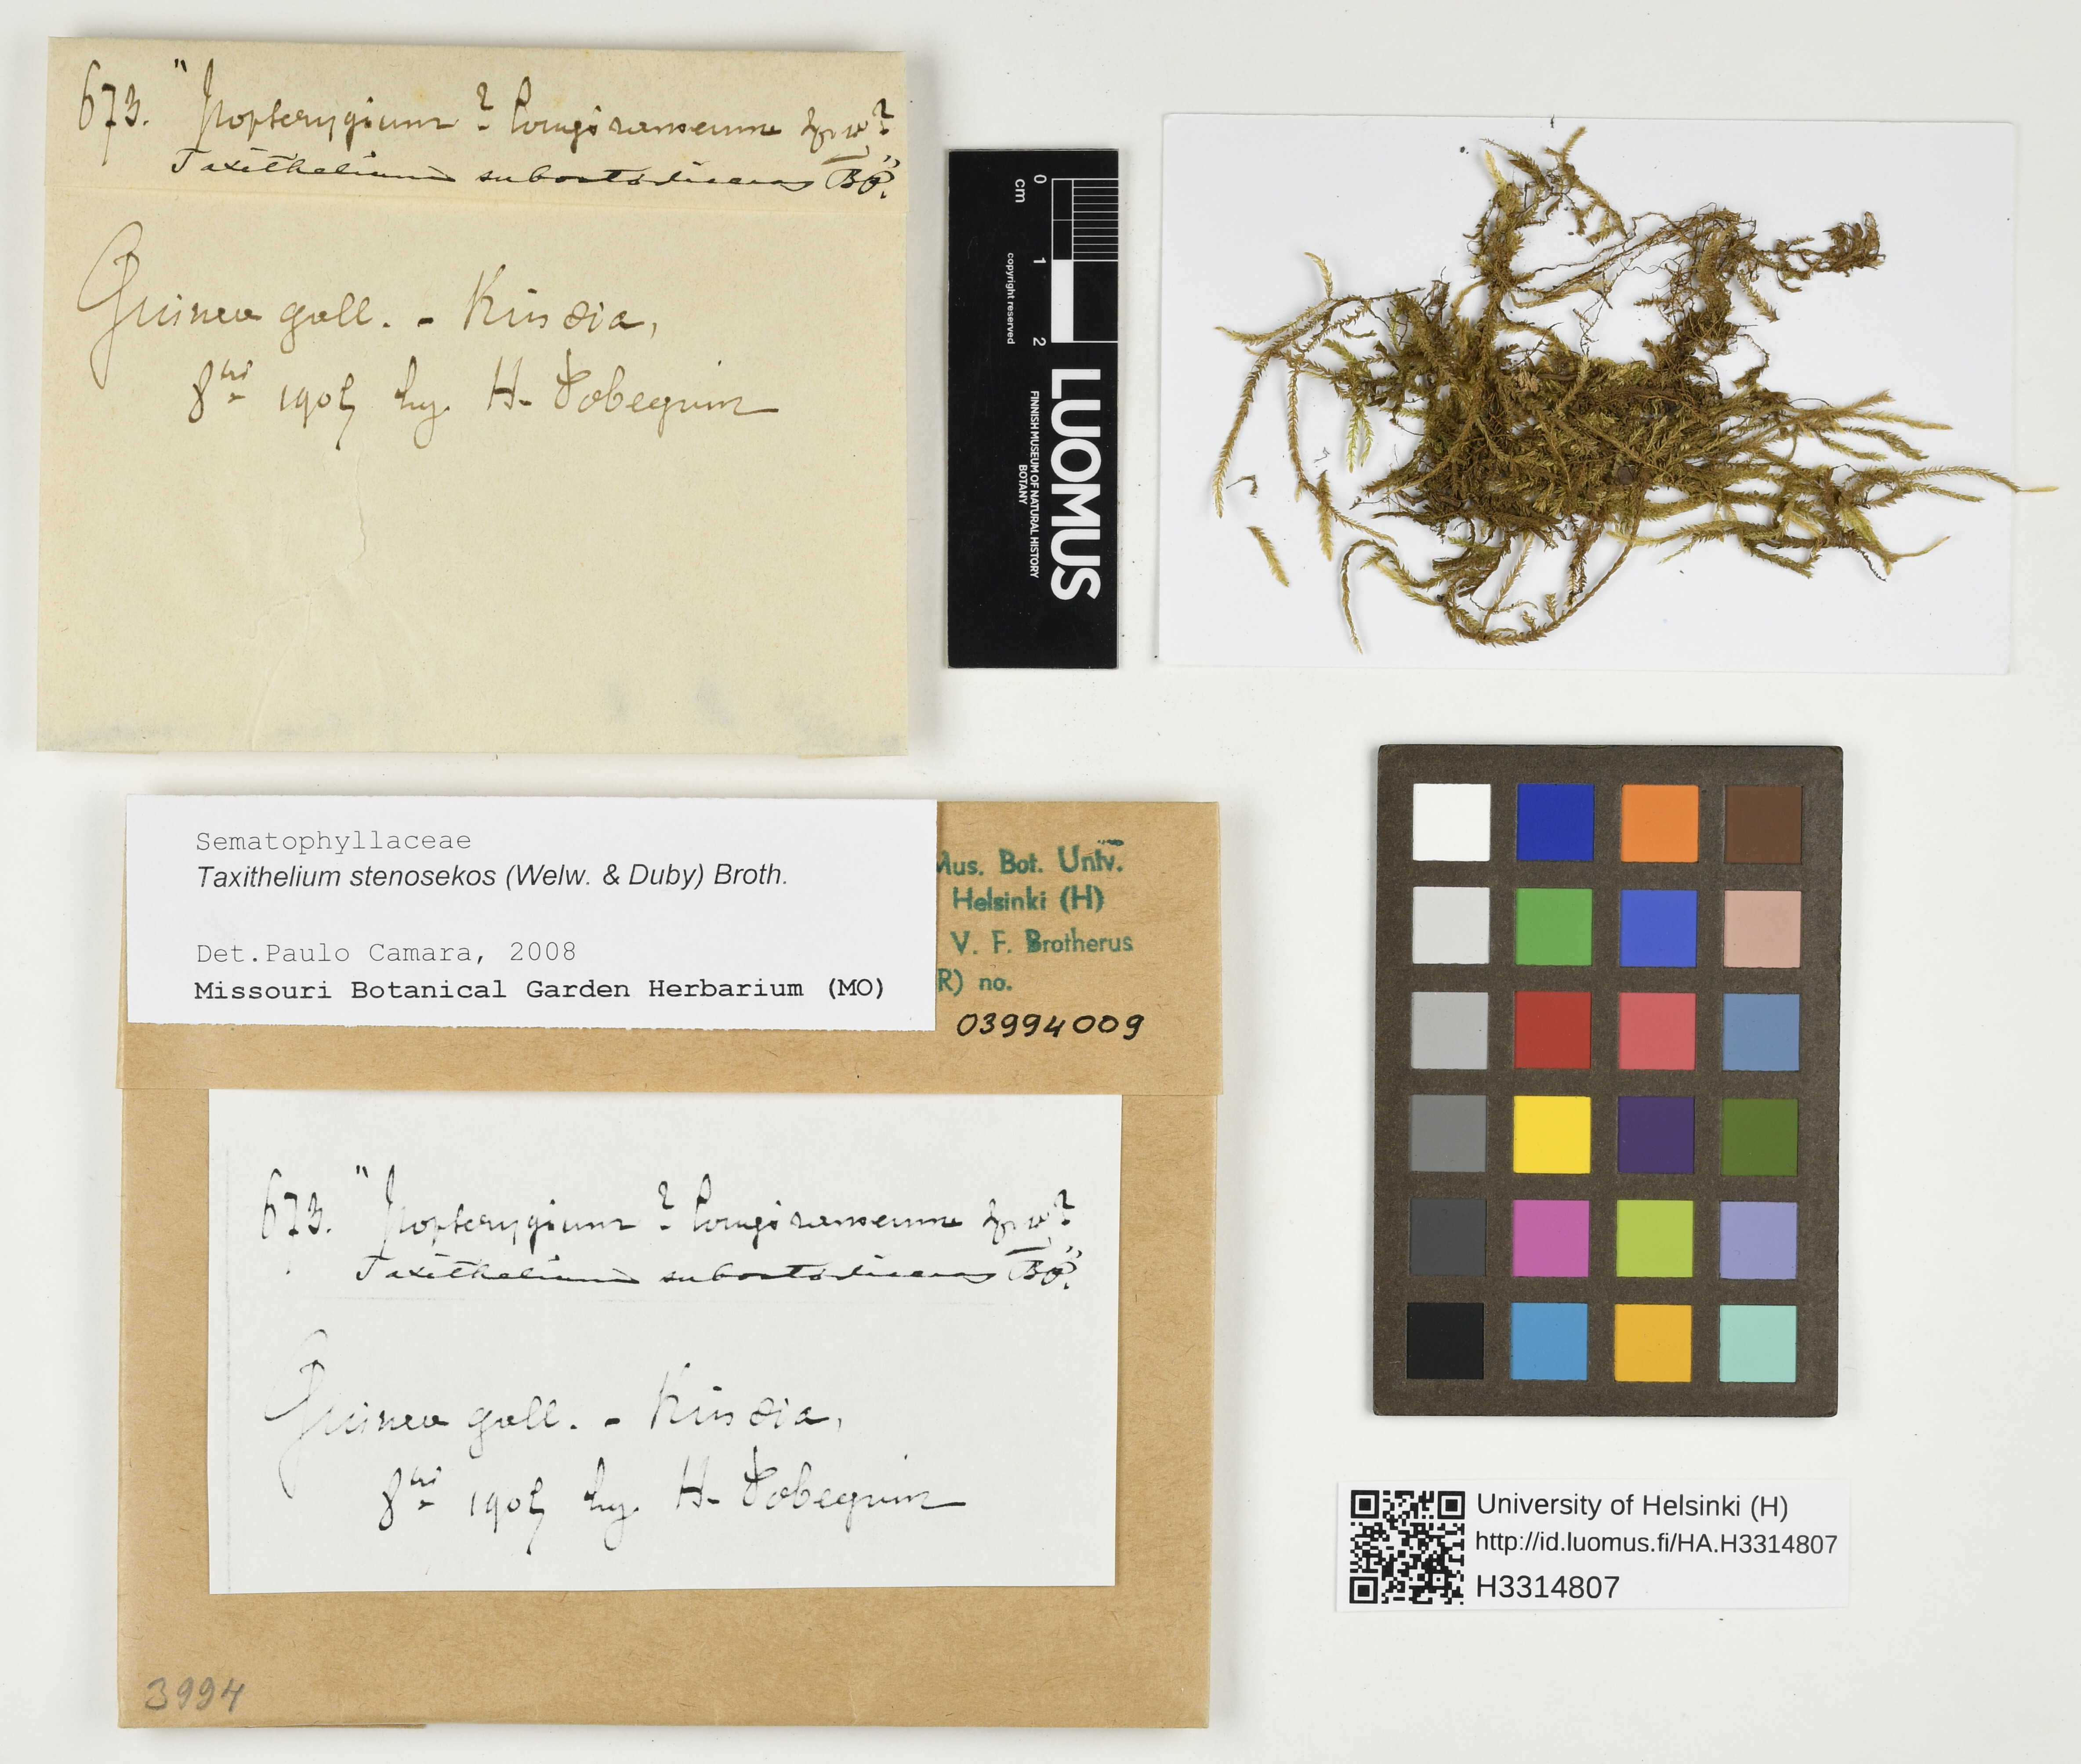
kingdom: Plantae
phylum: Bryophyta
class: Bryopsida
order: Hypnales
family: Pylaisiadelphaceae
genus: Taxithelium
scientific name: Taxithelium stenosekos
